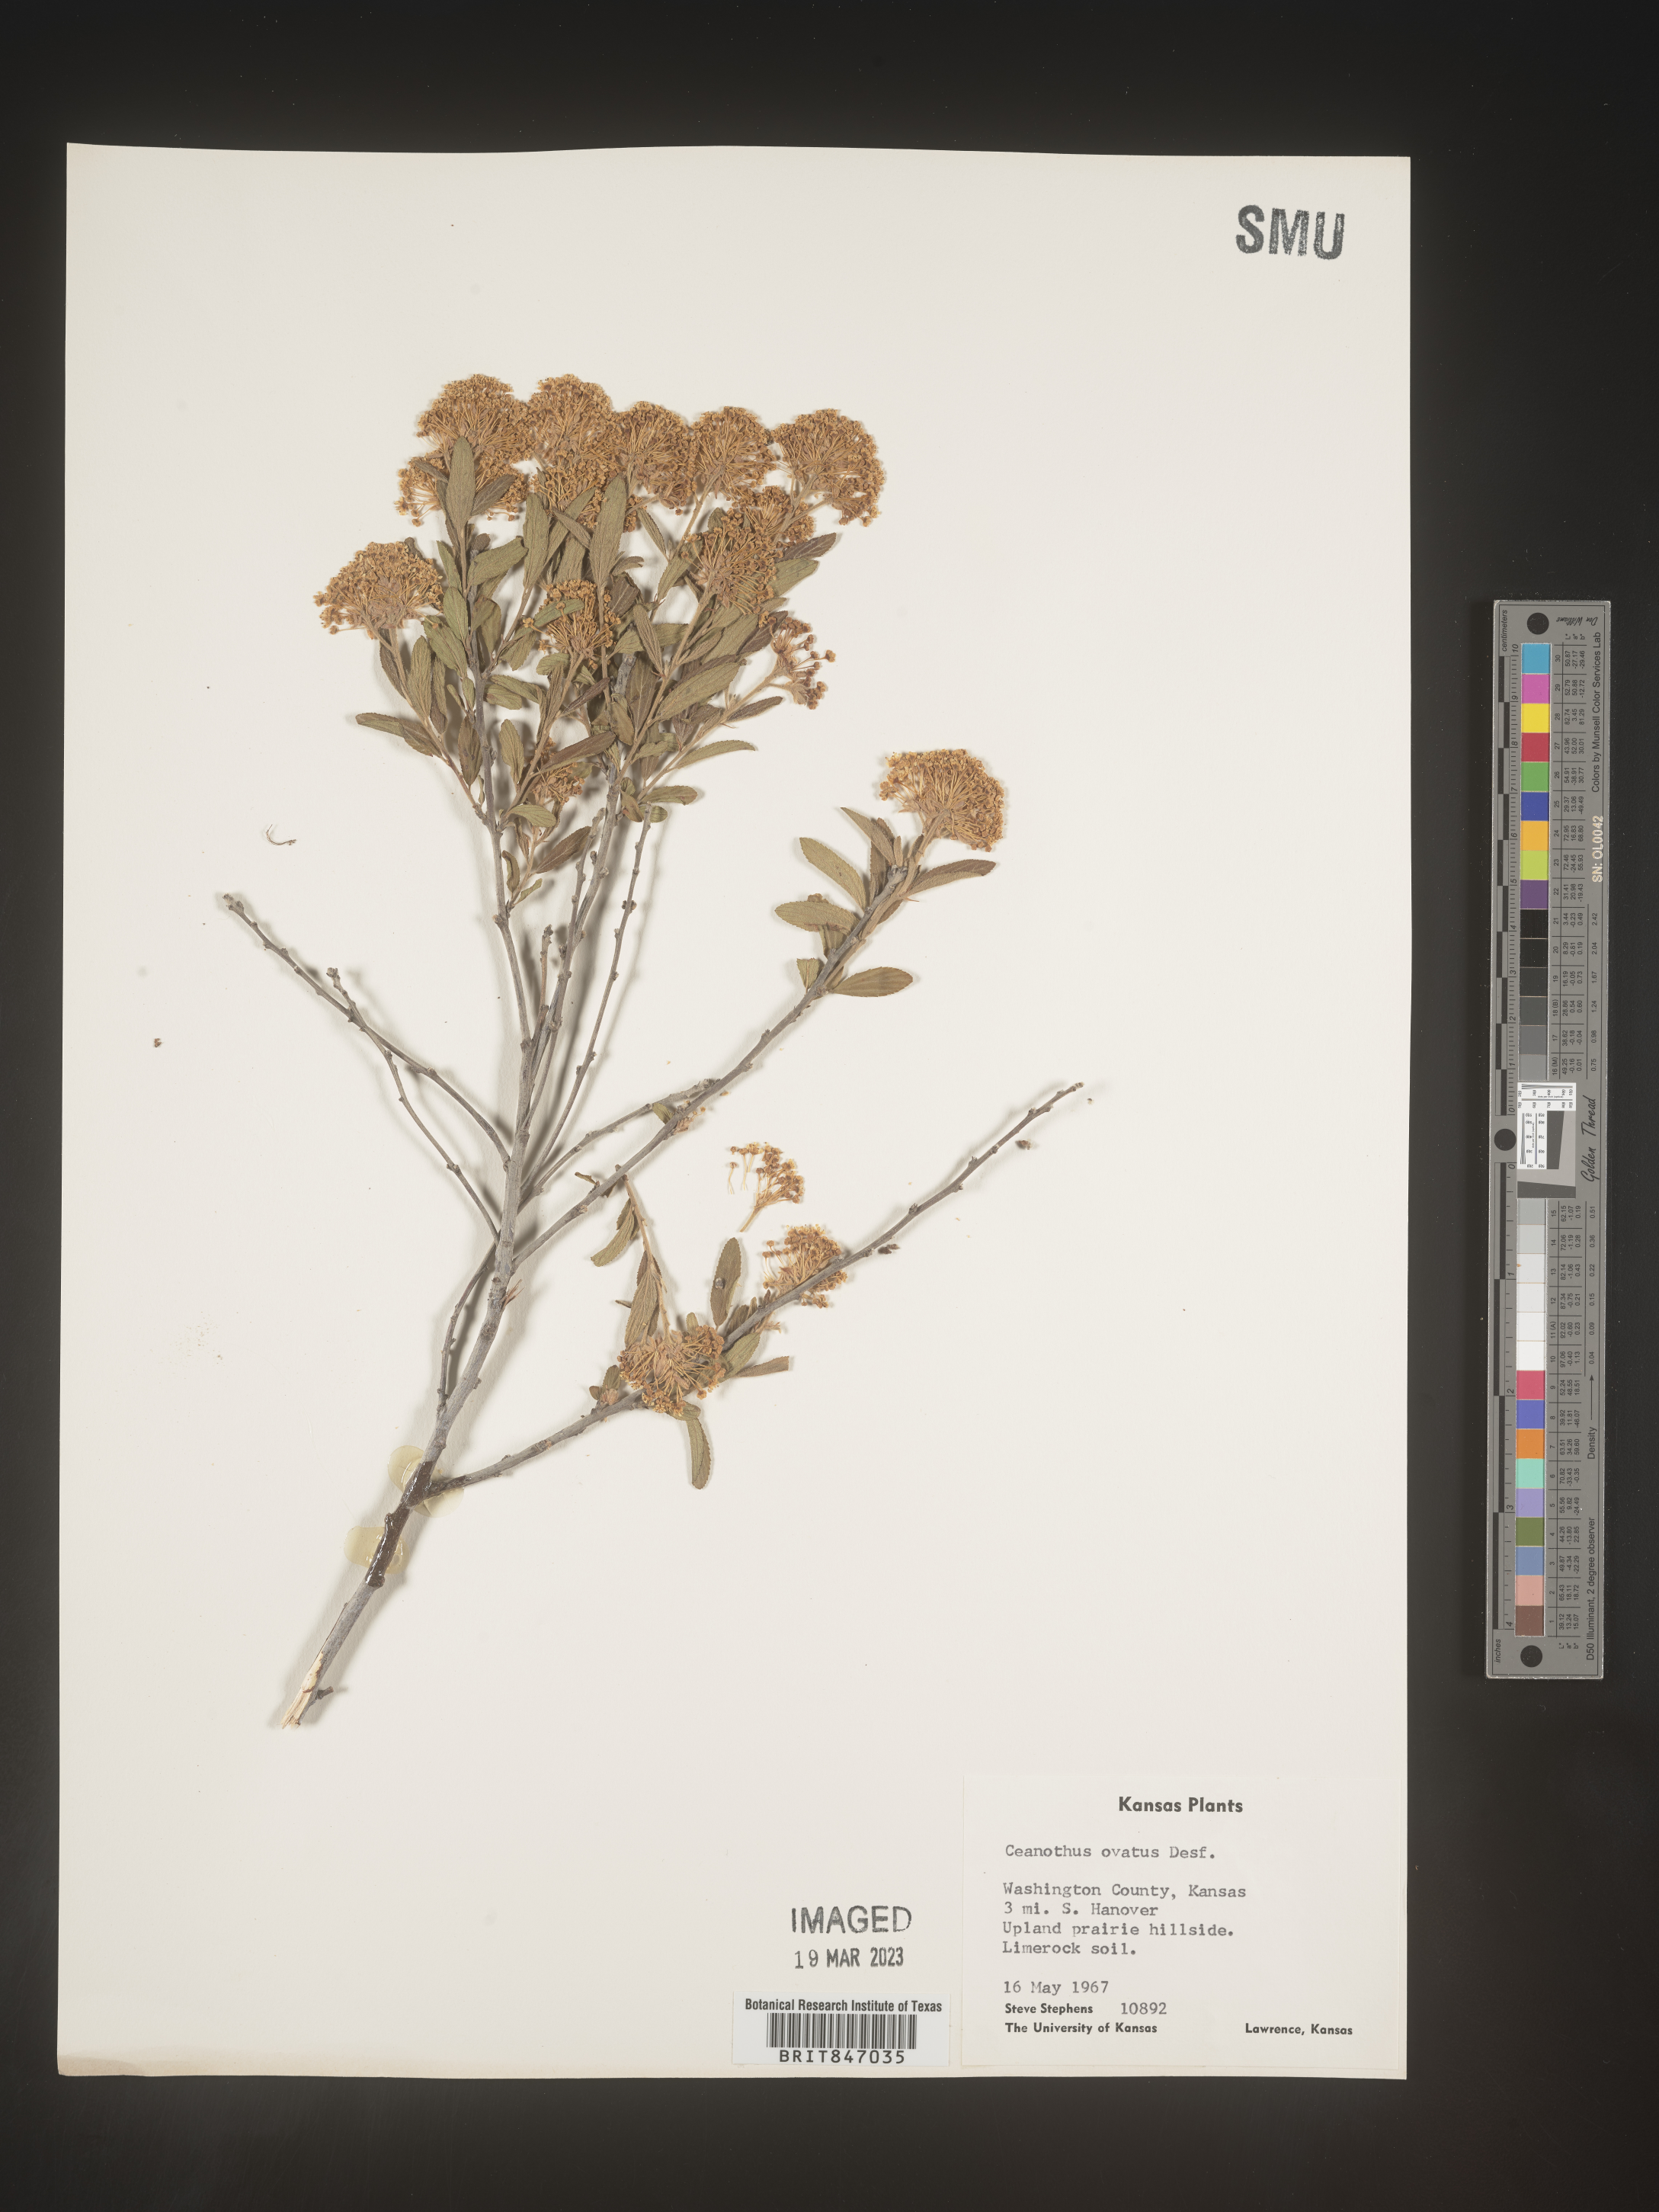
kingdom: Plantae
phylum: Tracheophyta
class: Magnoliopsida
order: Rosales
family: Rhamnaceae
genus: Ceanothus
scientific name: Ceanothus herbaceus
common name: Inland ceanothus
